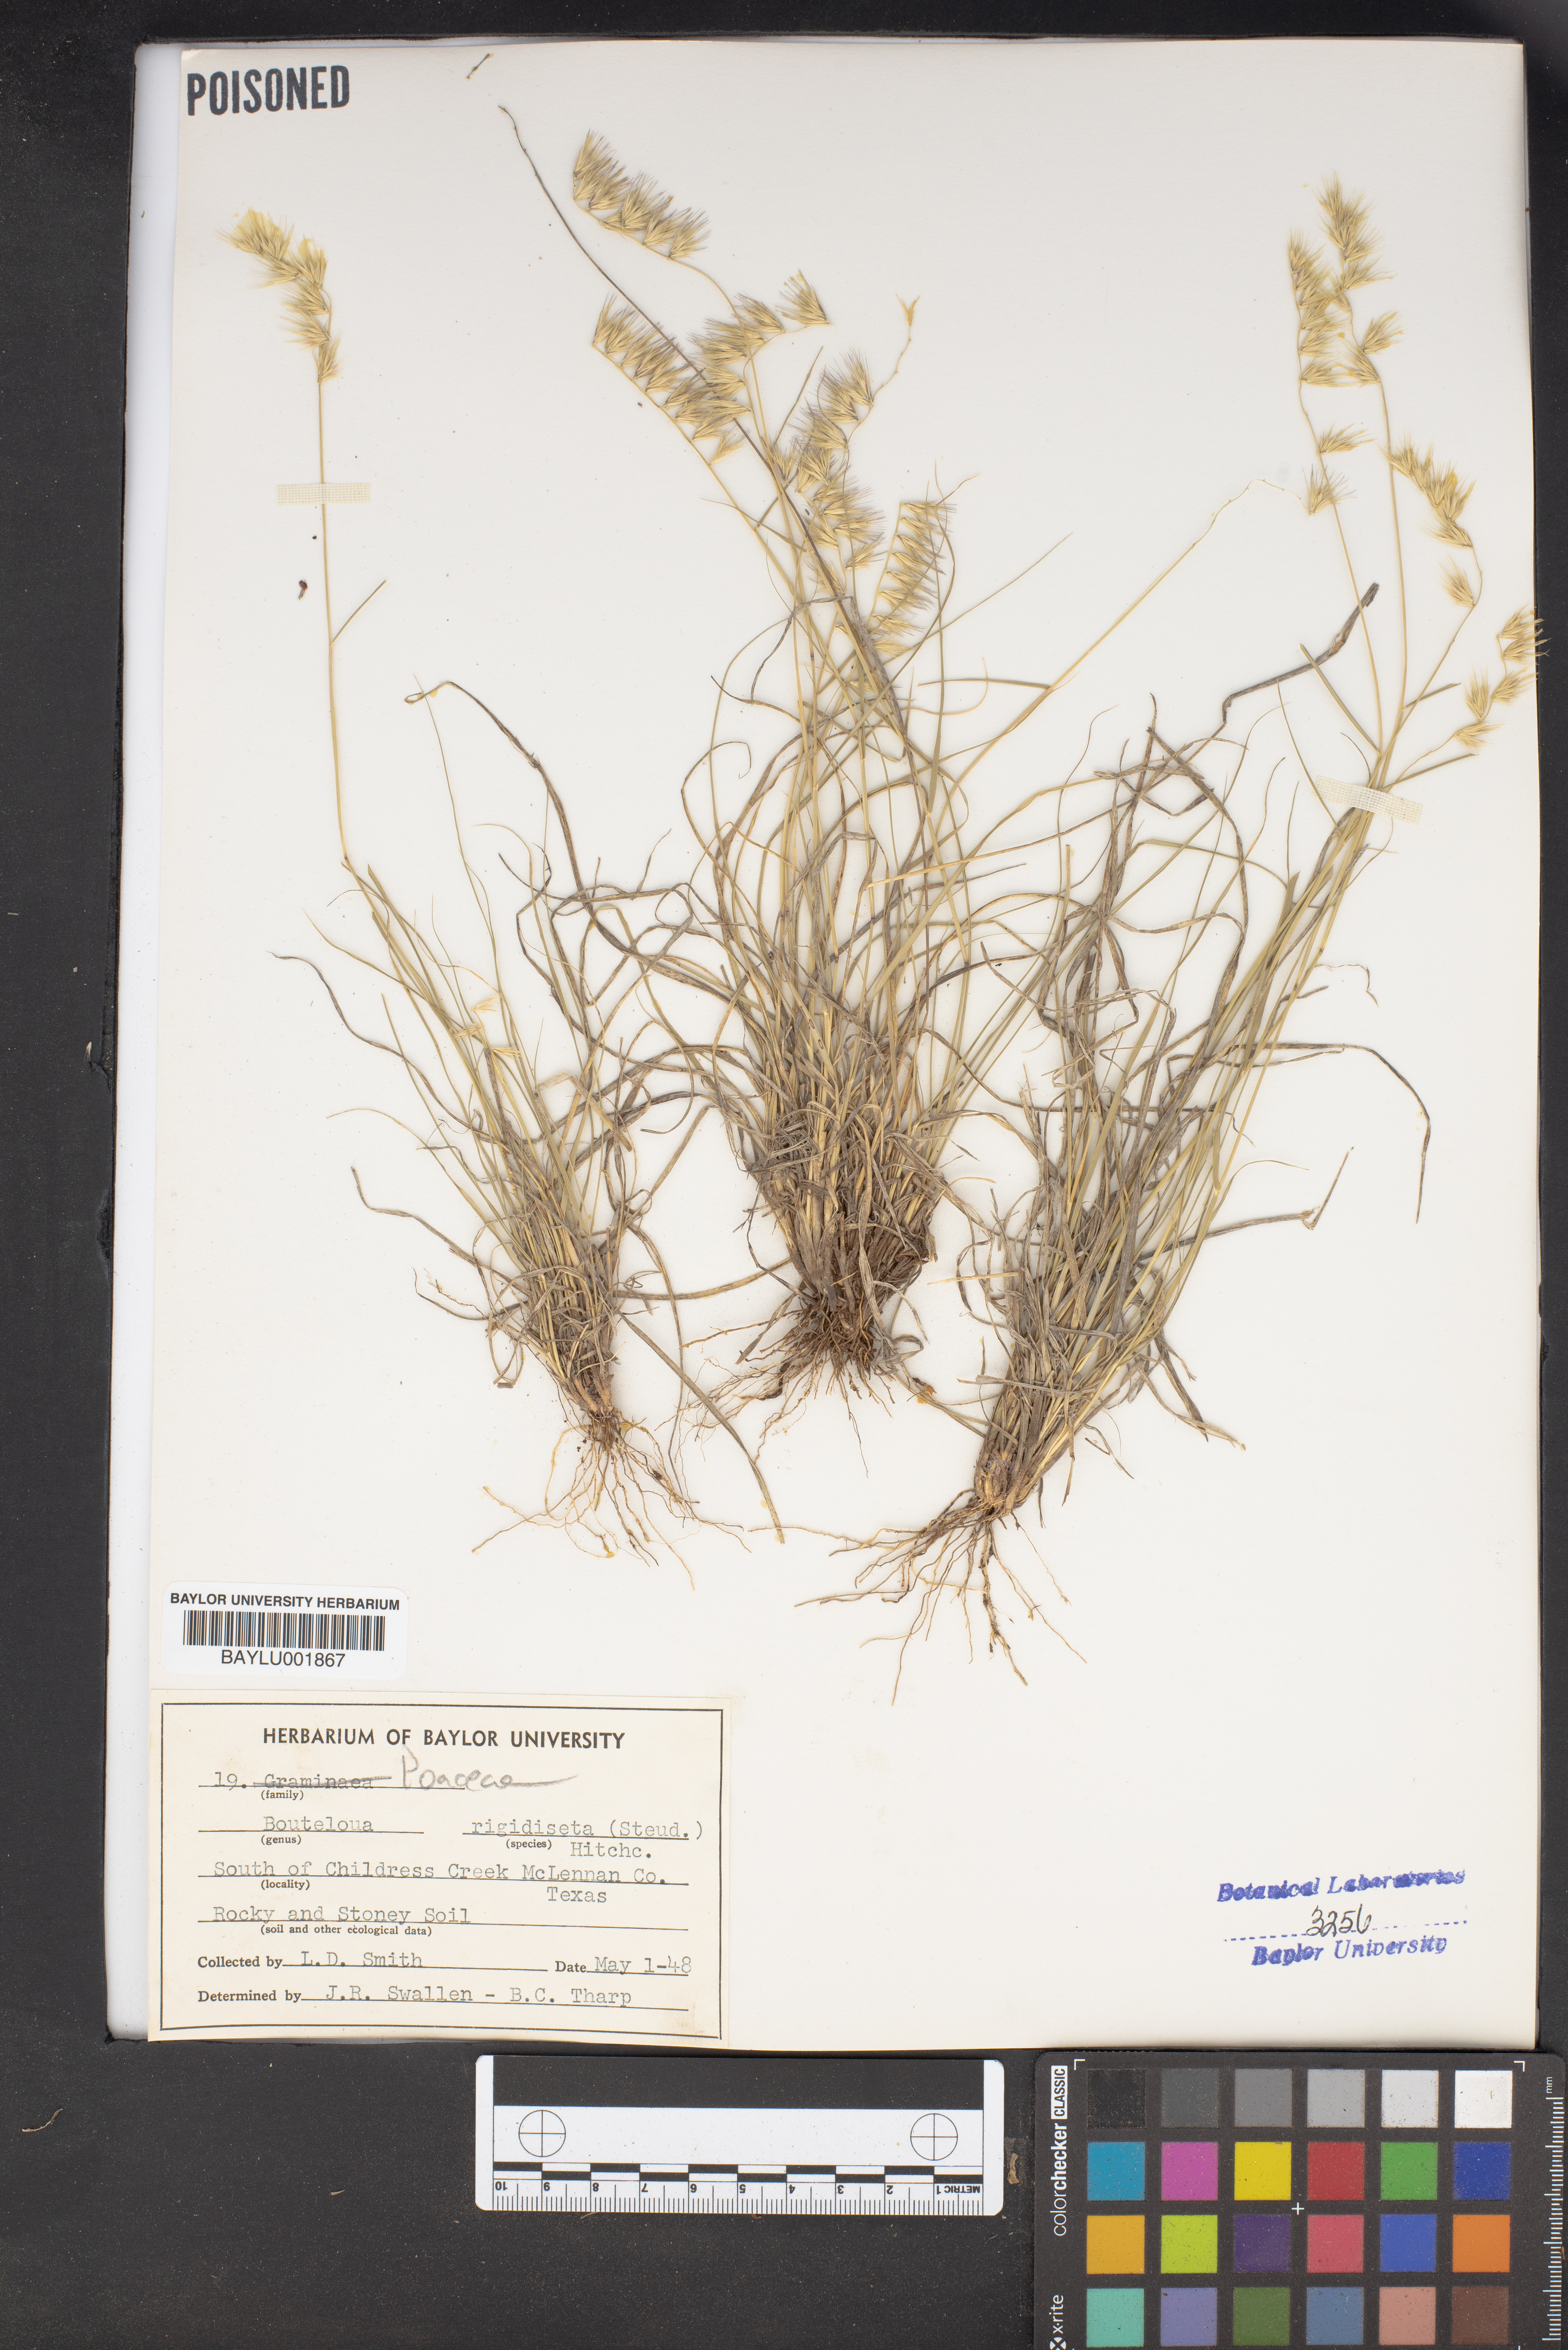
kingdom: Plantae
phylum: Tracheophyta
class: Liliopsida
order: Poales
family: Poaceae
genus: Bouteloua
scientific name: Bouteloua rigidiseta
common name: Texas grama
